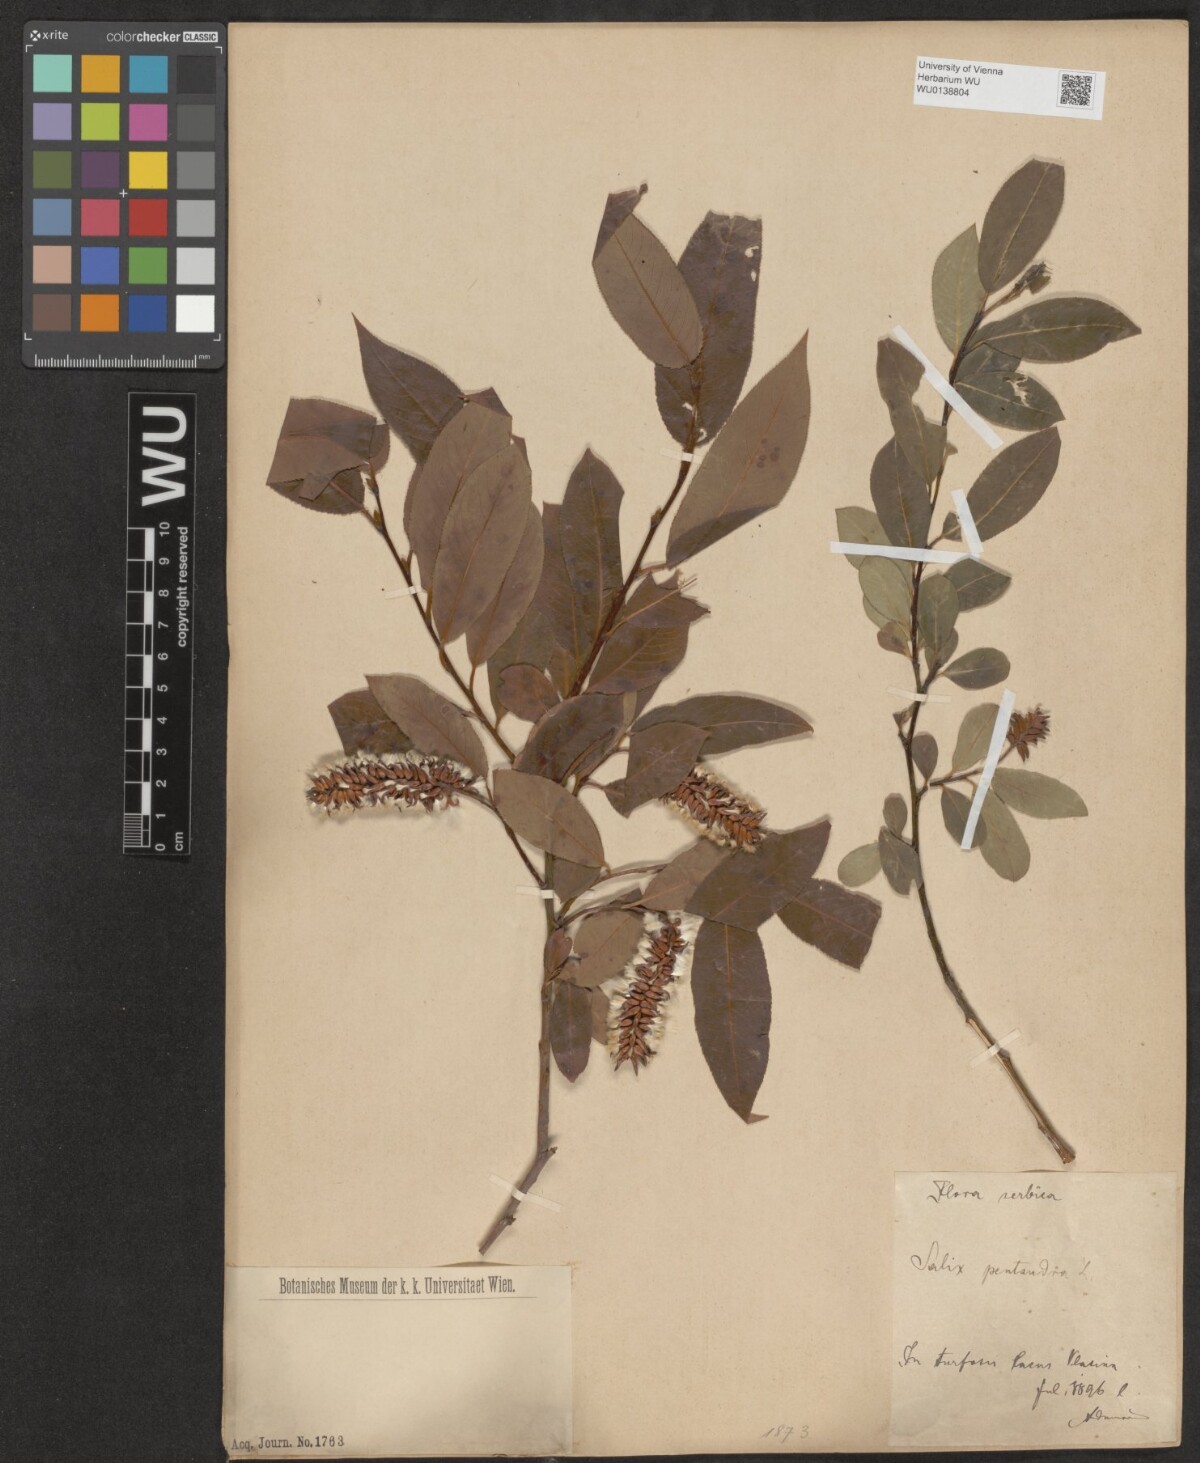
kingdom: Plantae
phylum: Tracheophyta
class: Magnoliopsida
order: Malpighiales
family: Salicaceae
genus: Salix
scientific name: Salix pentandra
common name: Bay willow
